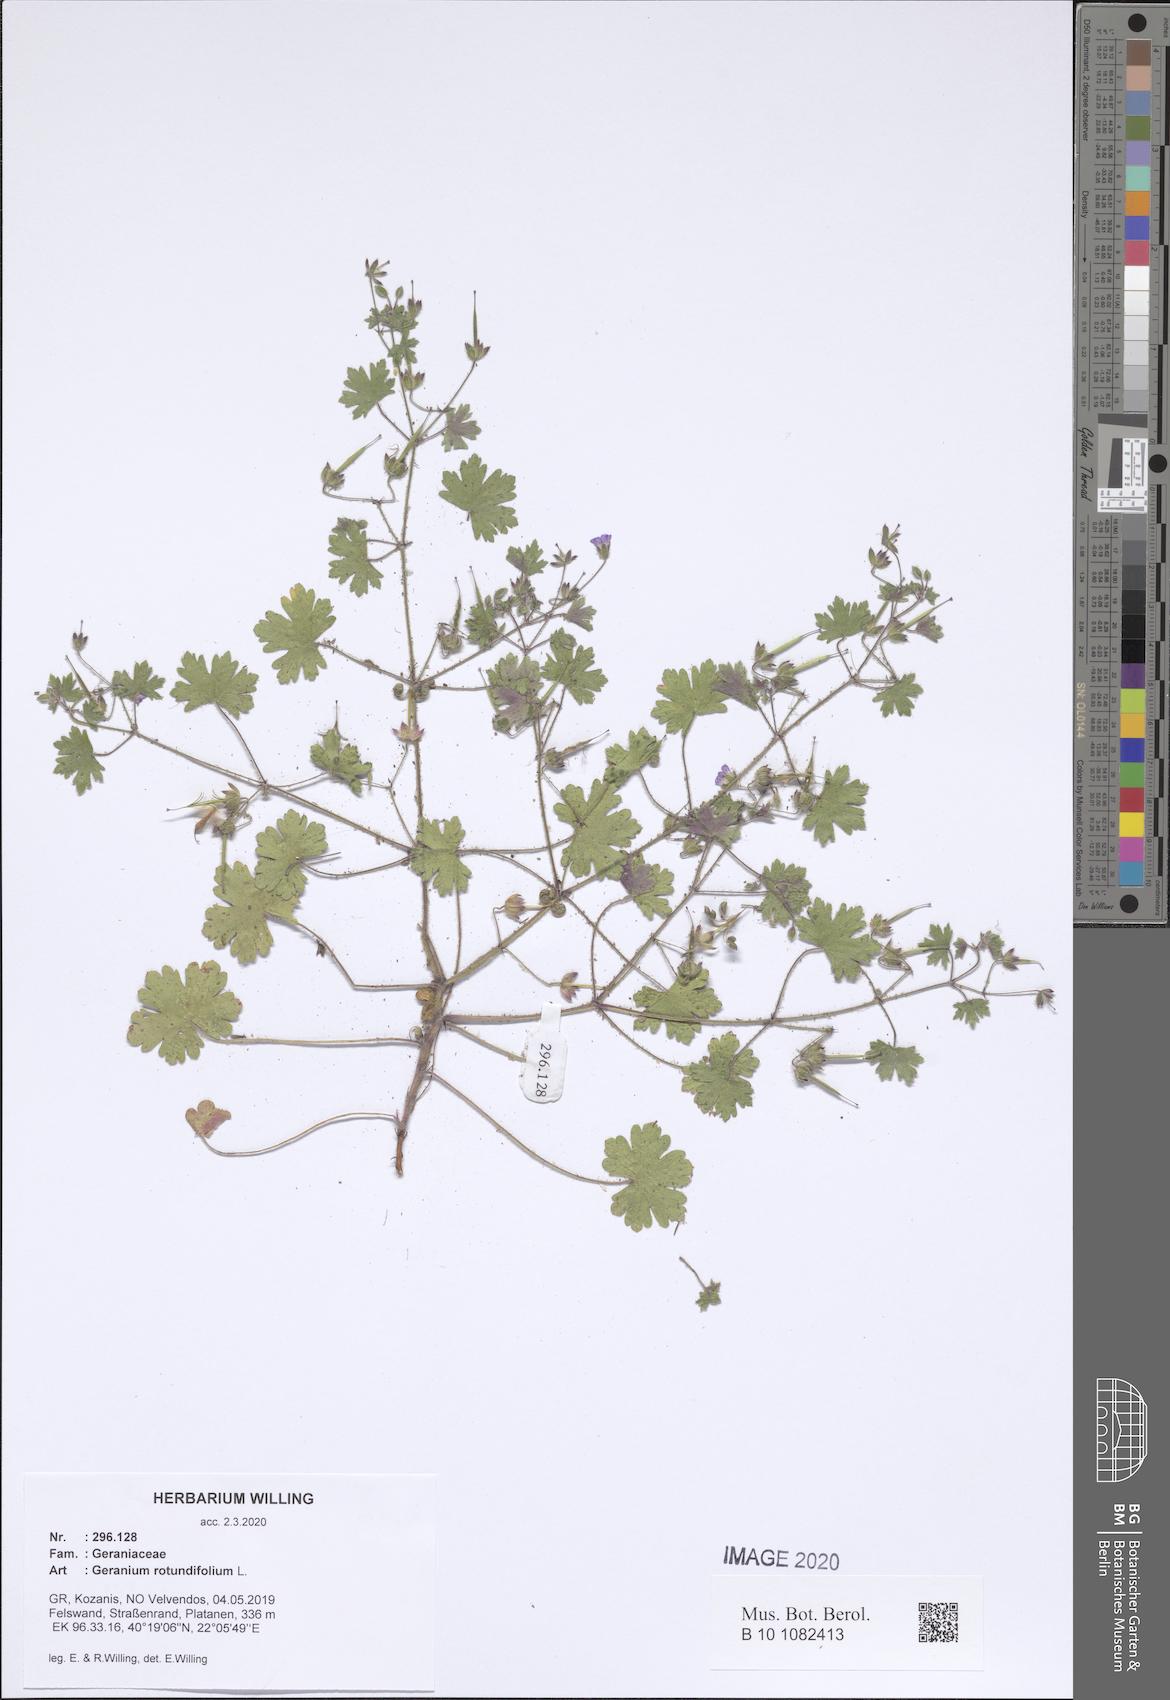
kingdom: Plantae
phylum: Tracheophyta
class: Magnoliopsida
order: Geraniales
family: Geraniaceae
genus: Geranium
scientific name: Geranium rotundifolium
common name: Round-leaved crane's-bill
